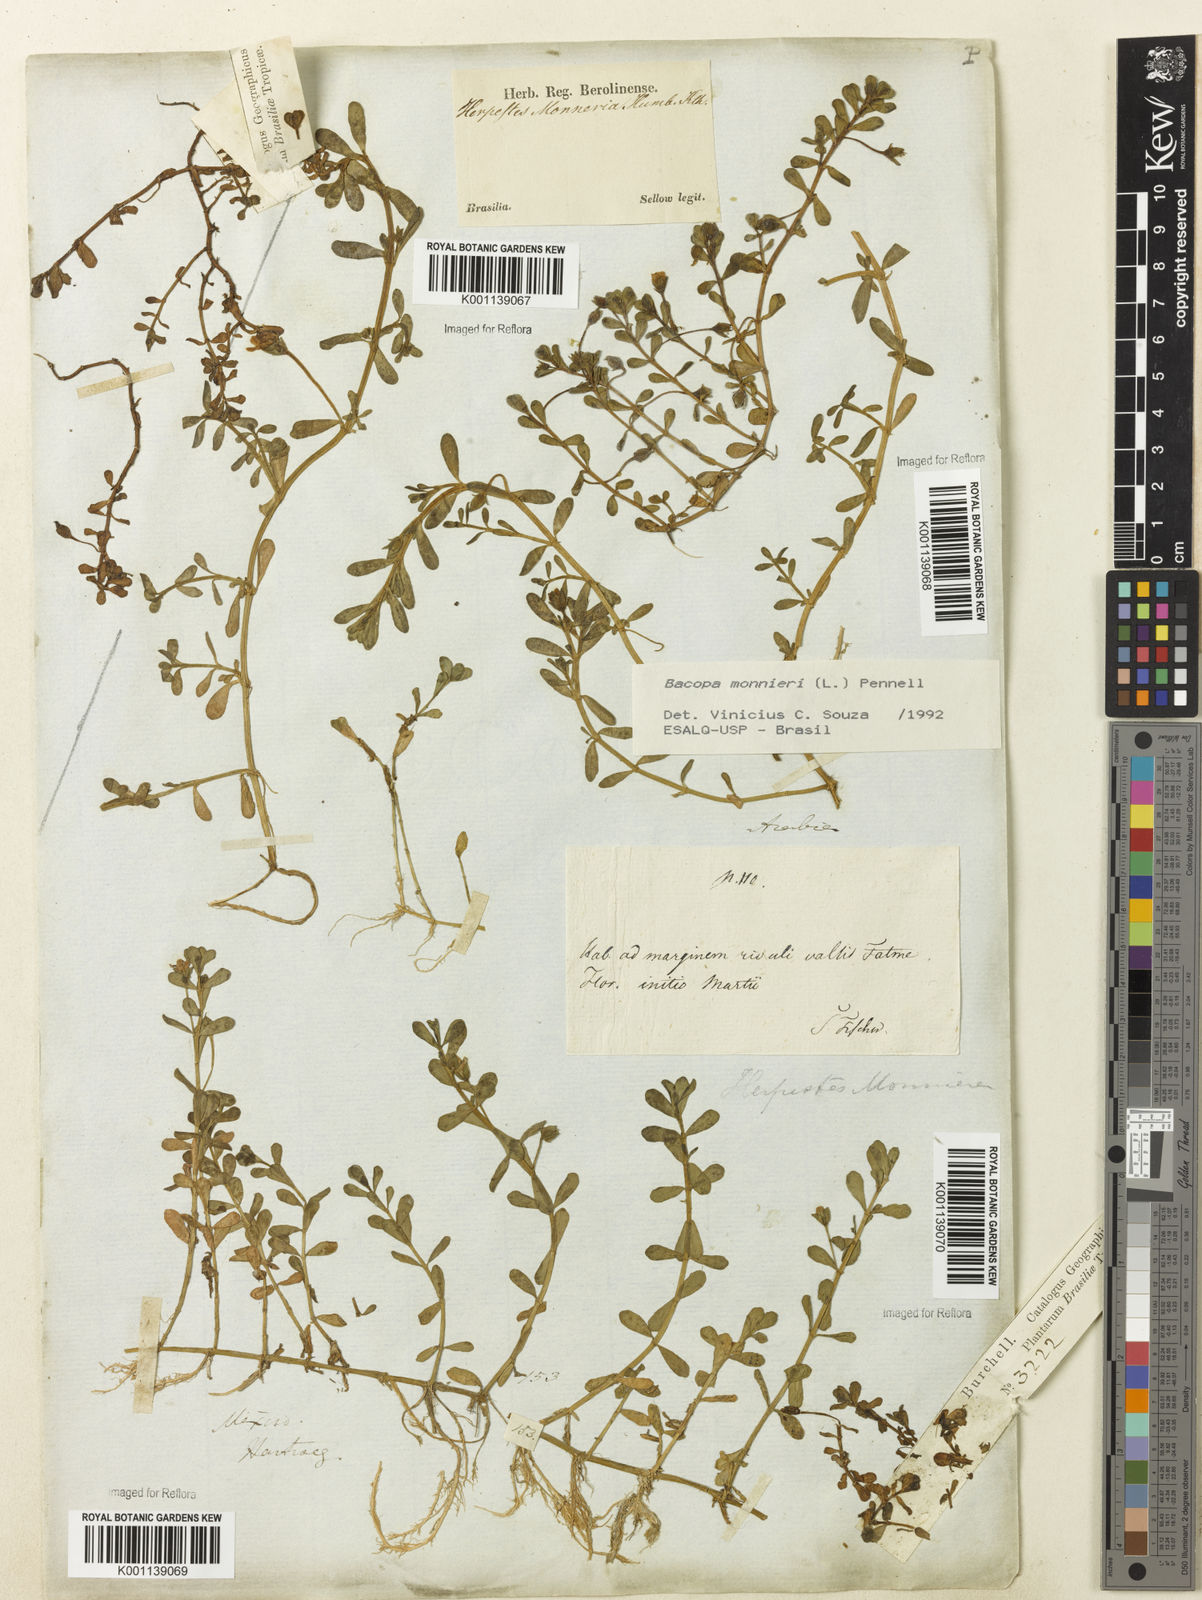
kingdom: Plantae
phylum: Tracheophyta
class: Magnoliopsida
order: Lamiales
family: Plantaginaceae
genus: Bacopa
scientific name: Bacopa
